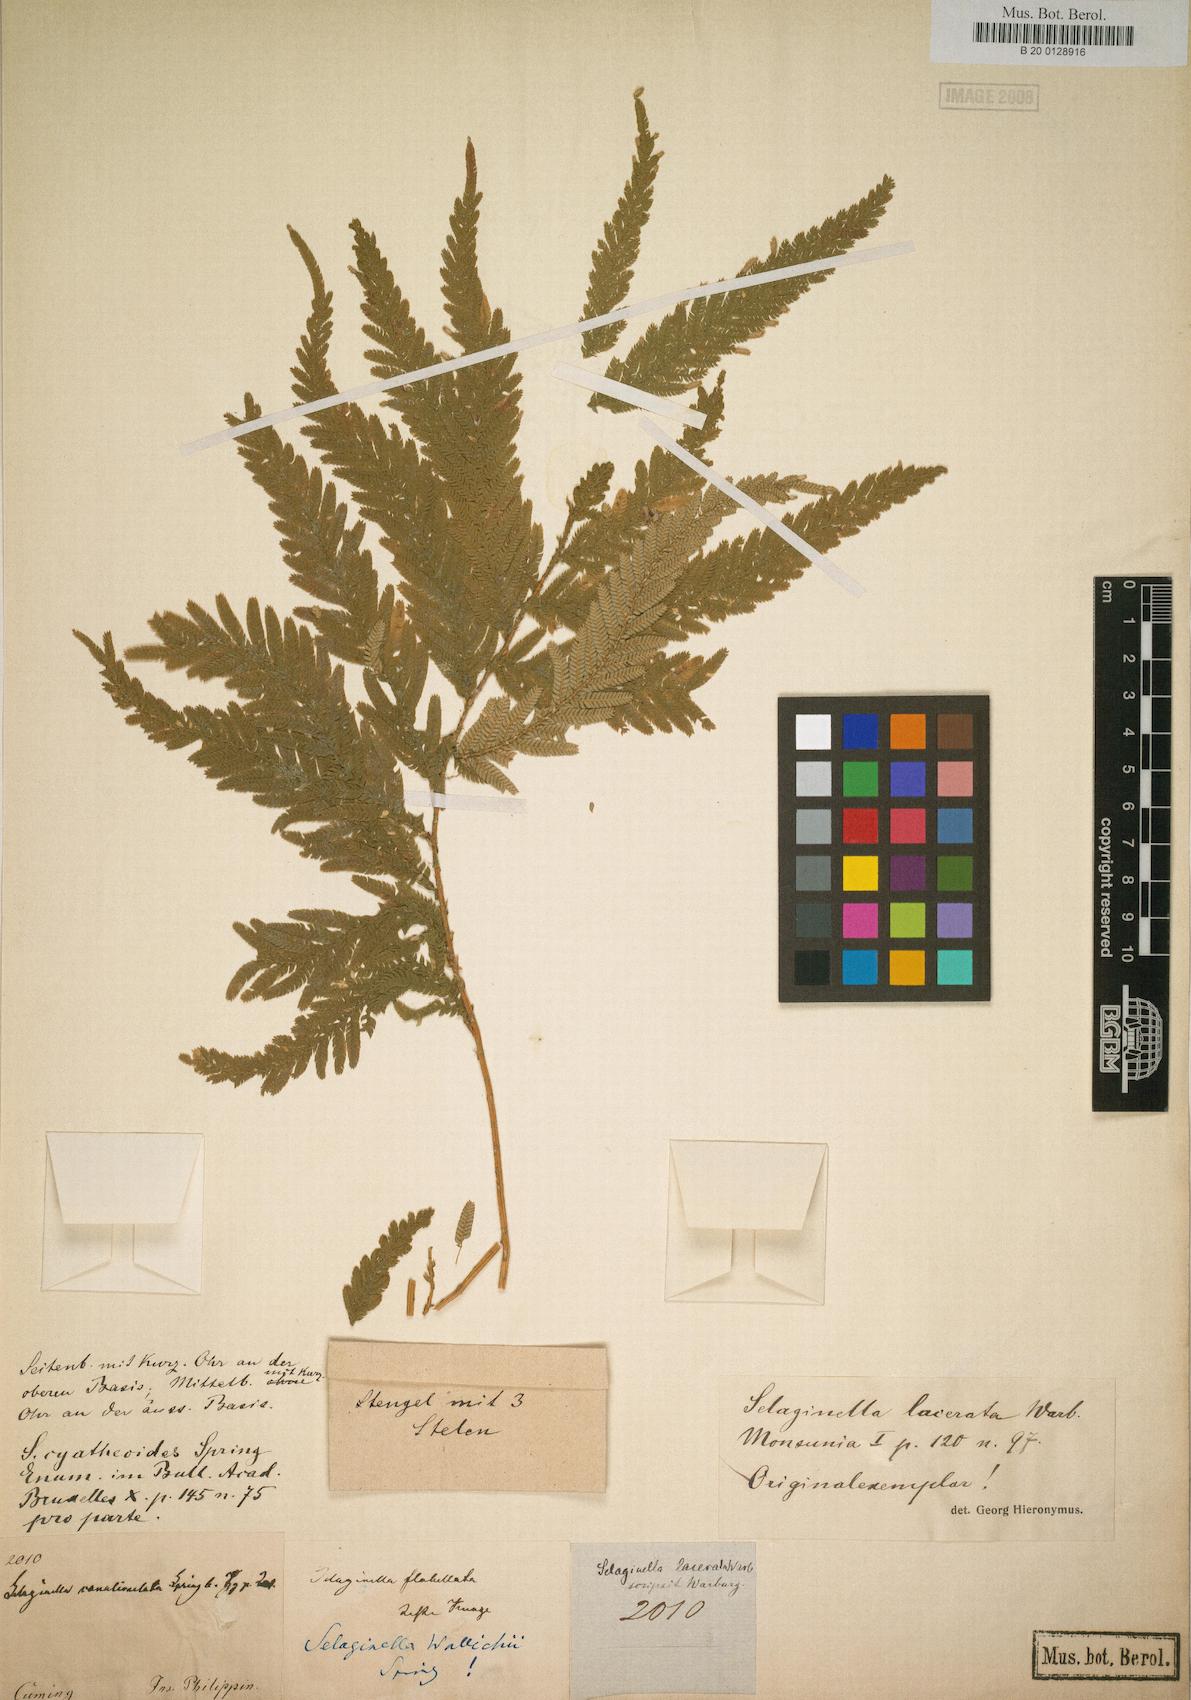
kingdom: Plantae
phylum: Tracheophyta
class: Lycopodiopsida
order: Selaginellales
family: Selaginellaceae
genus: Selaginella
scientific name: Selaginella involvens
